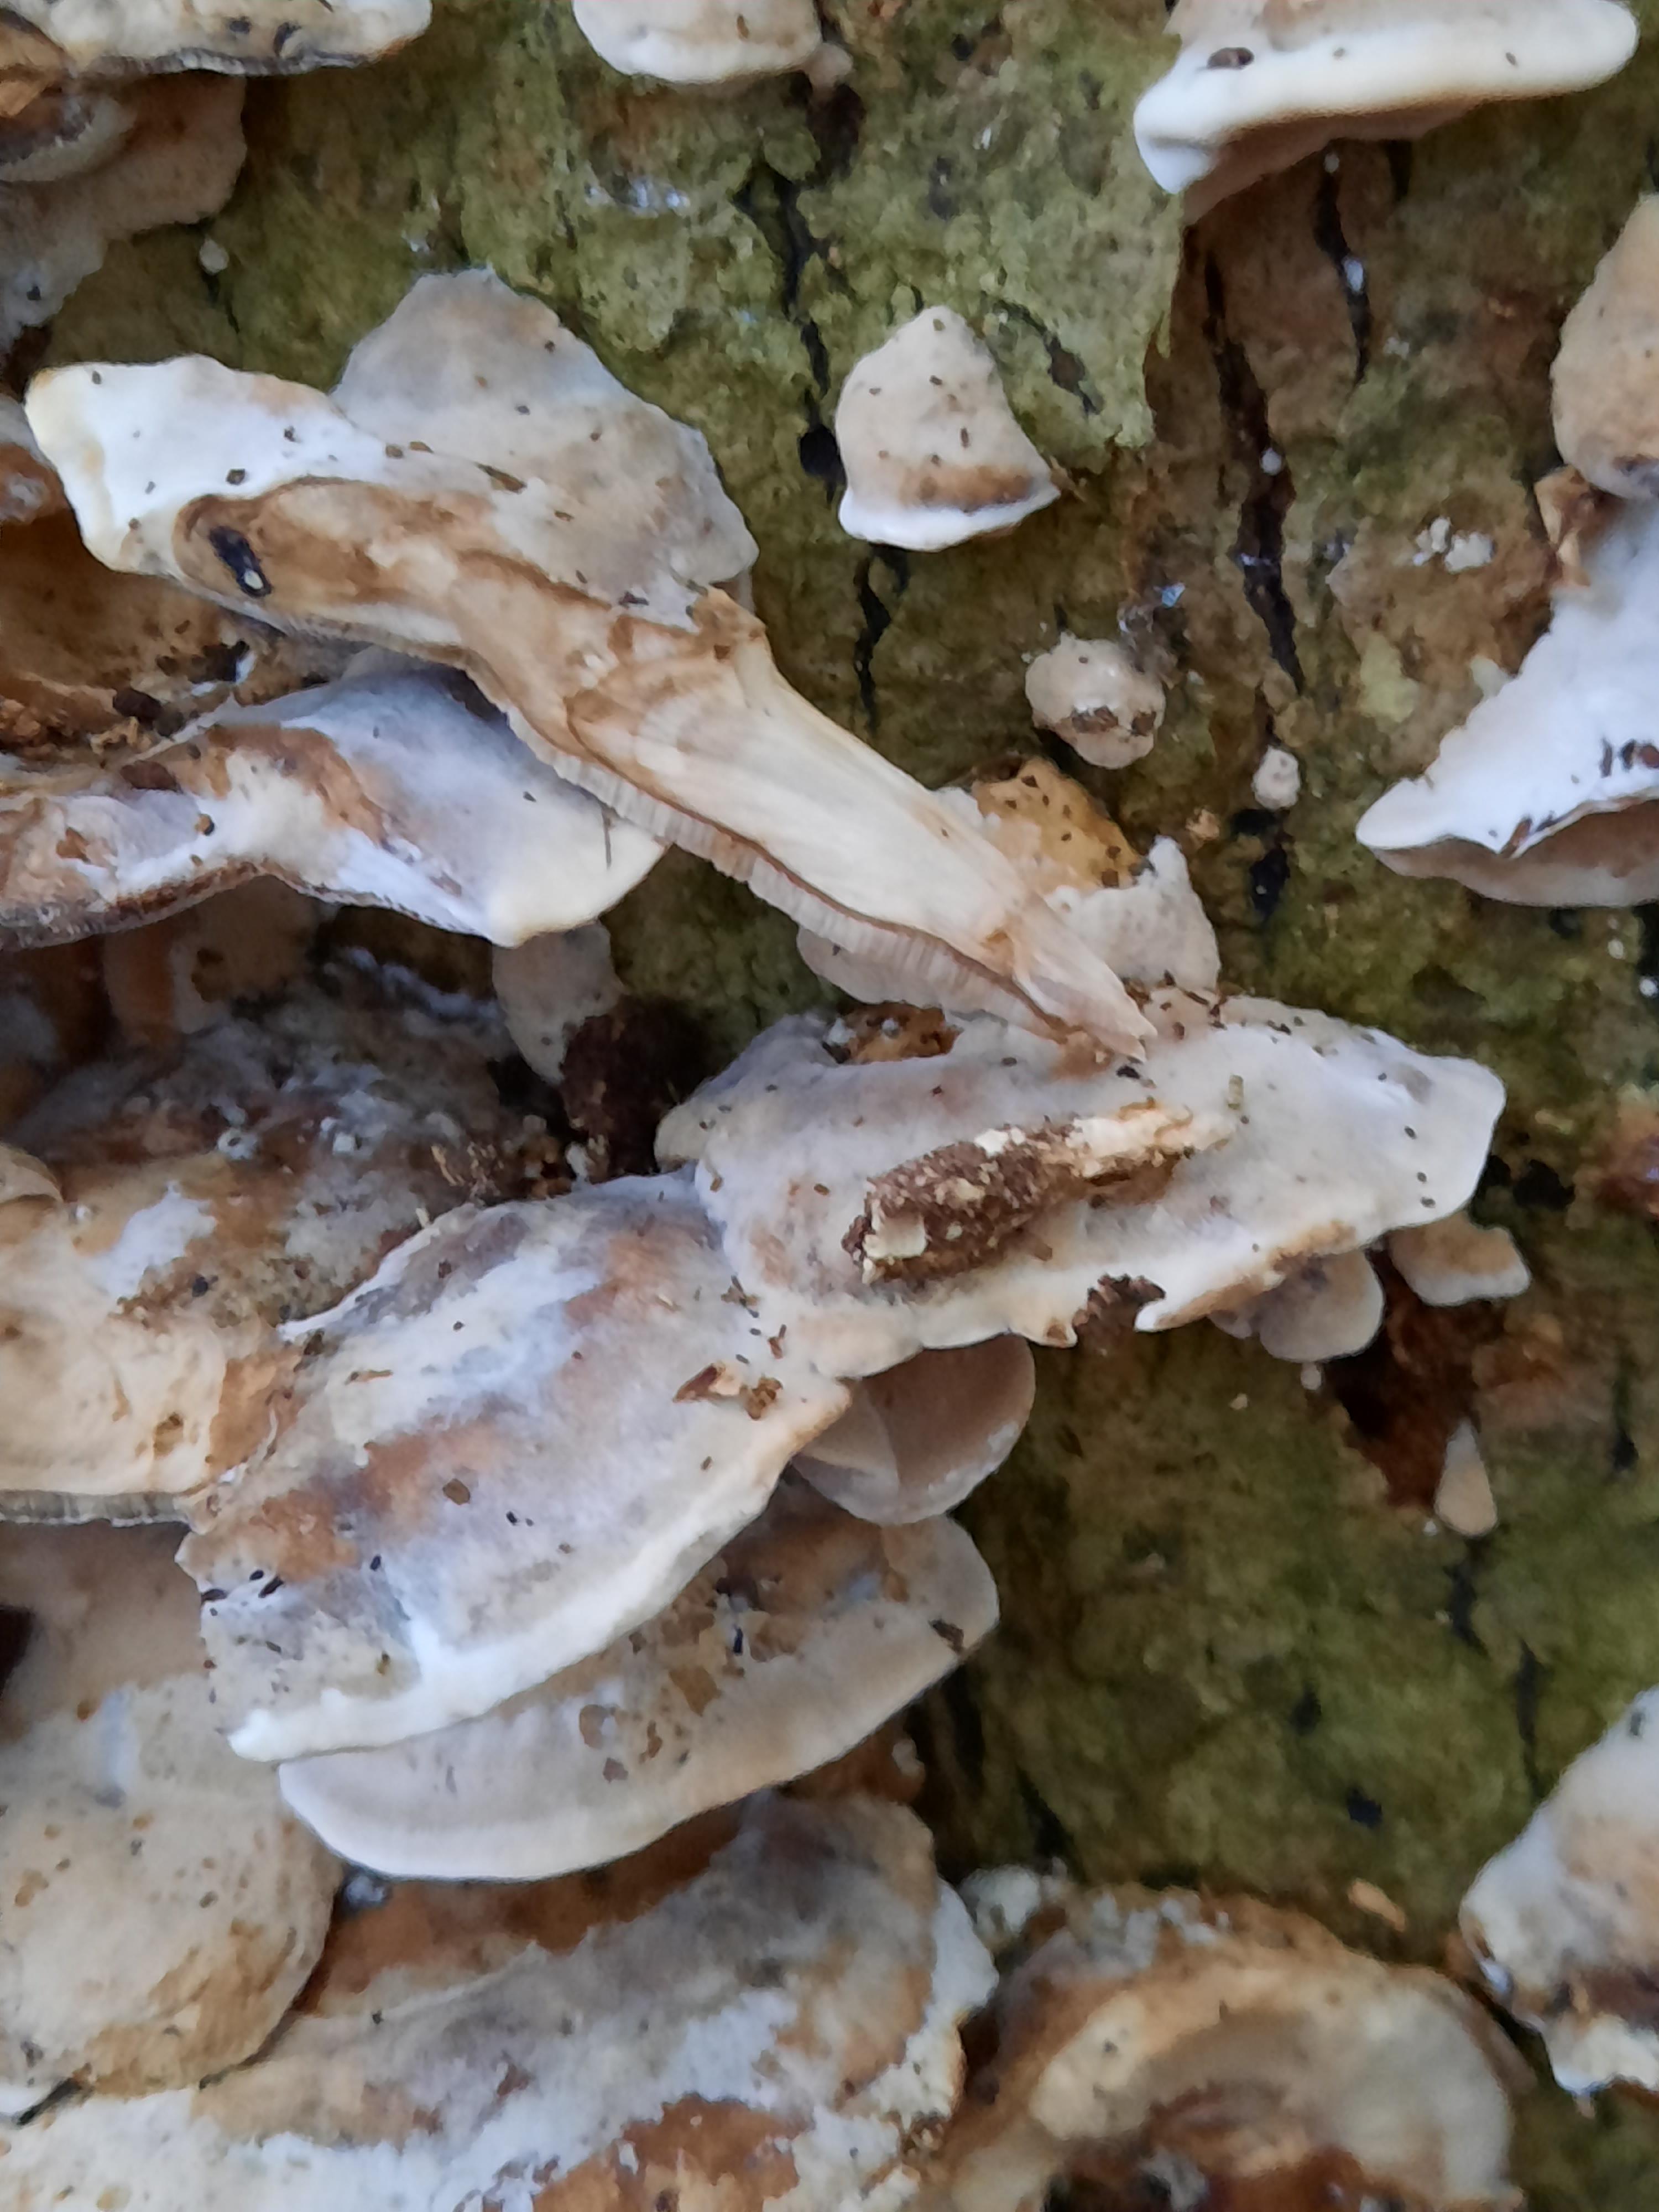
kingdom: Fungi
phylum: Basidiomycota
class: Agaricomycetes
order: Polyporales
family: Phanerochaetaceae
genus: Bjerkandera
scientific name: Bjerkandera fumosa
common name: grågul sodporesvamp
